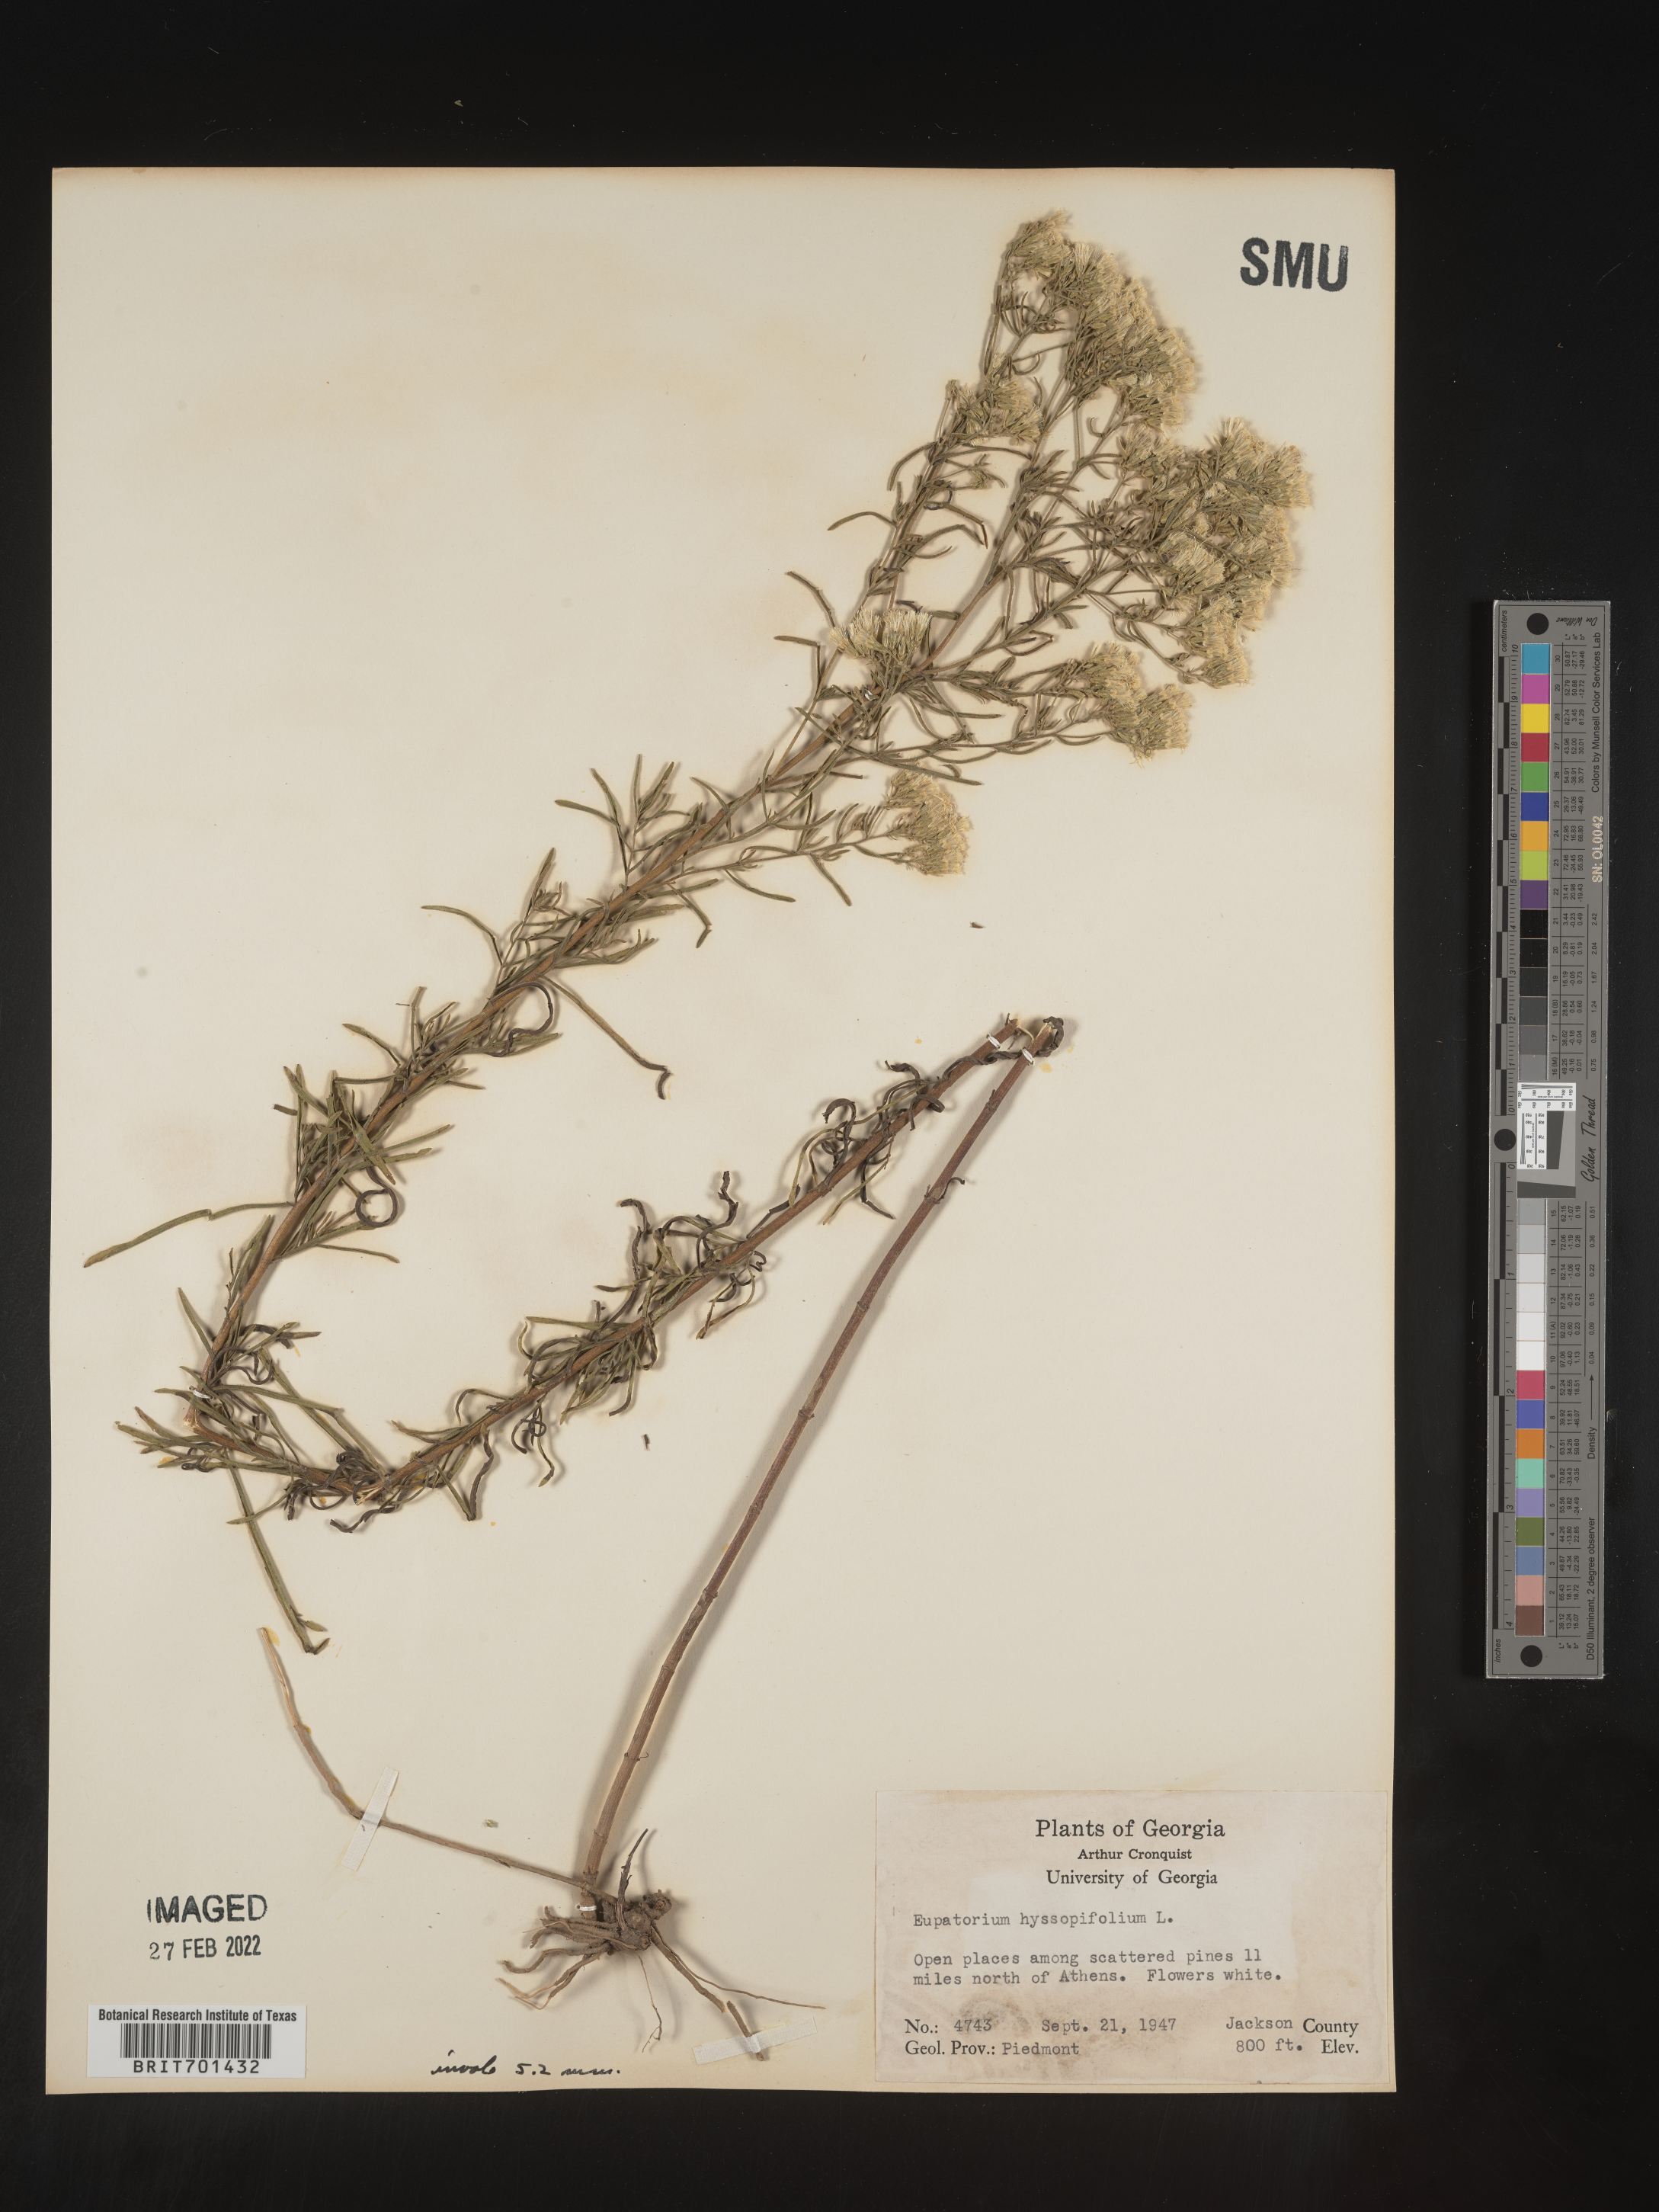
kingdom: Plantae
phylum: Tracheophyta
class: Magnoliopsida
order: Asterales
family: Asteraceae
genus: Eupatorium
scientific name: Eupatorium hyssopifolium
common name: Hyssop-leaf thoroughwort
